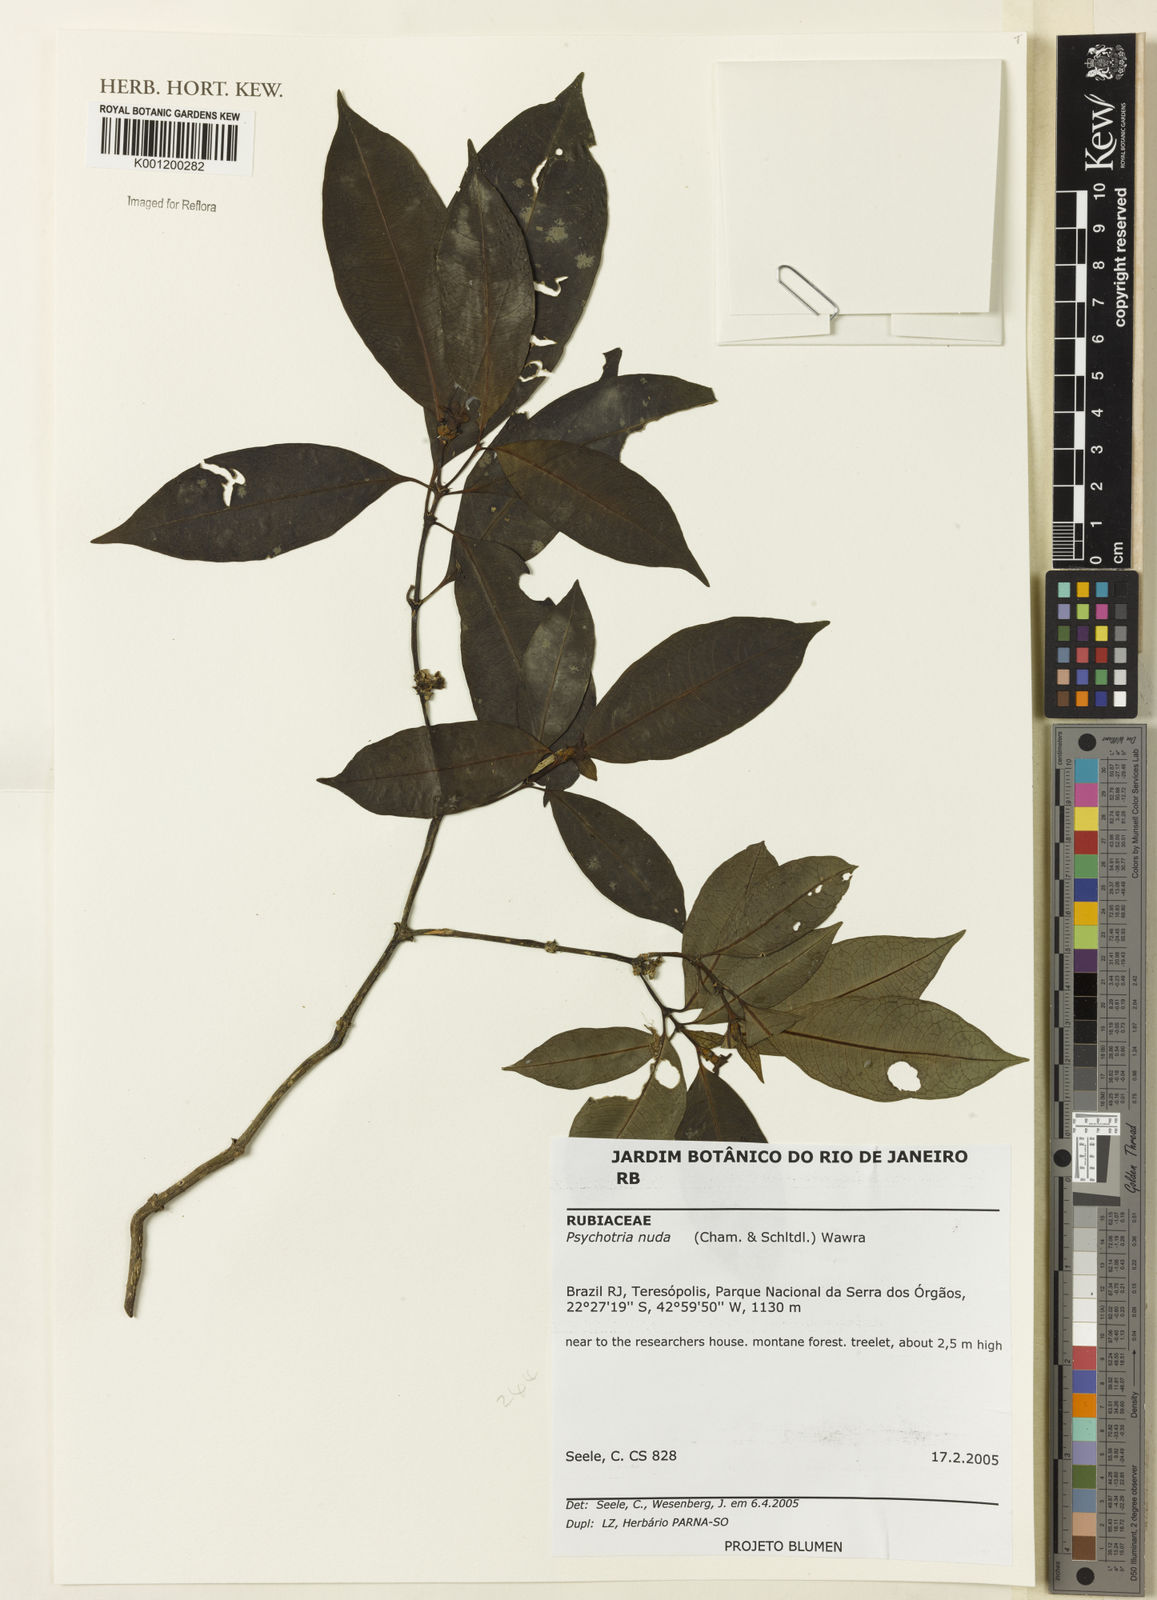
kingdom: Plantae
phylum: Tracheophyta
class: Magnoliopsida
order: Gentianales
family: Rubiaceae
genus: Psychotria
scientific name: Psychotria nuda
